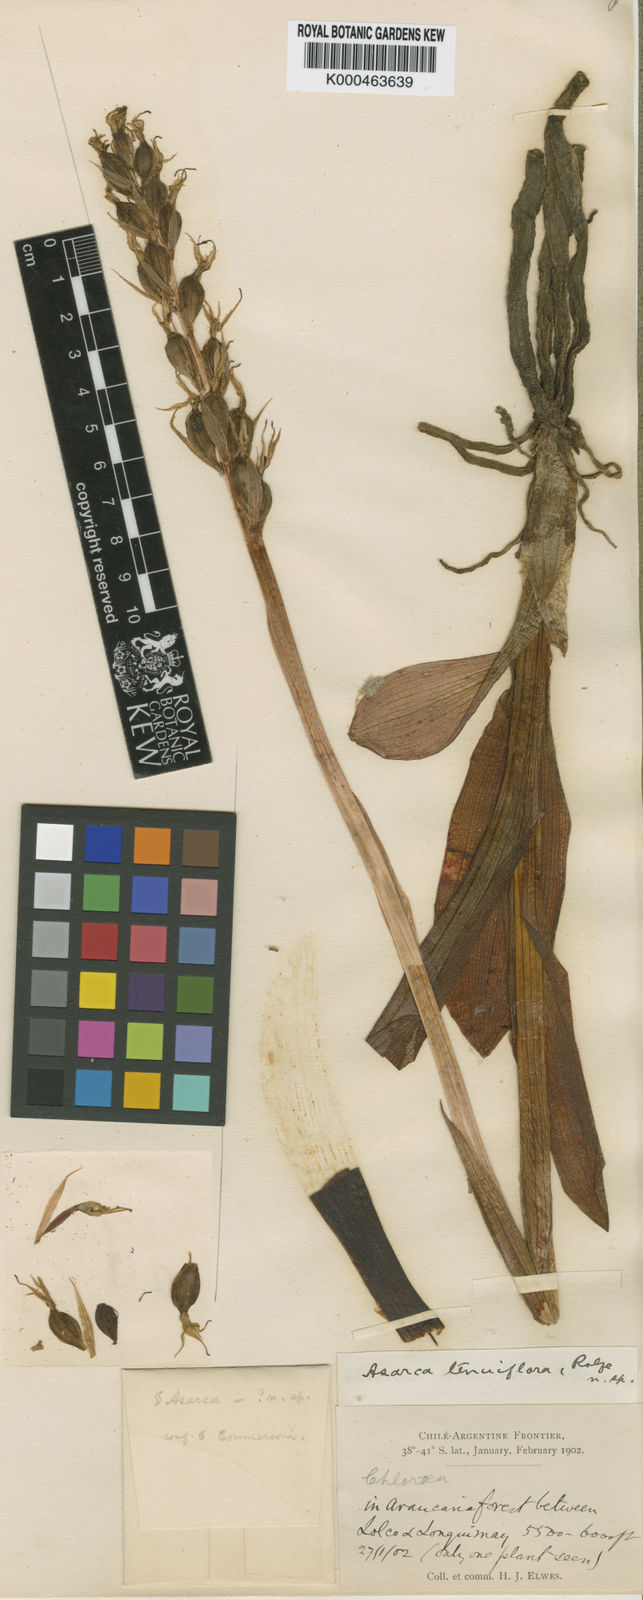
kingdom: Plantae
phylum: Tracheophyta
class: Liliopsida
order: Asparagales
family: Orchidaceae
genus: Gavilea
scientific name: Gavilea
